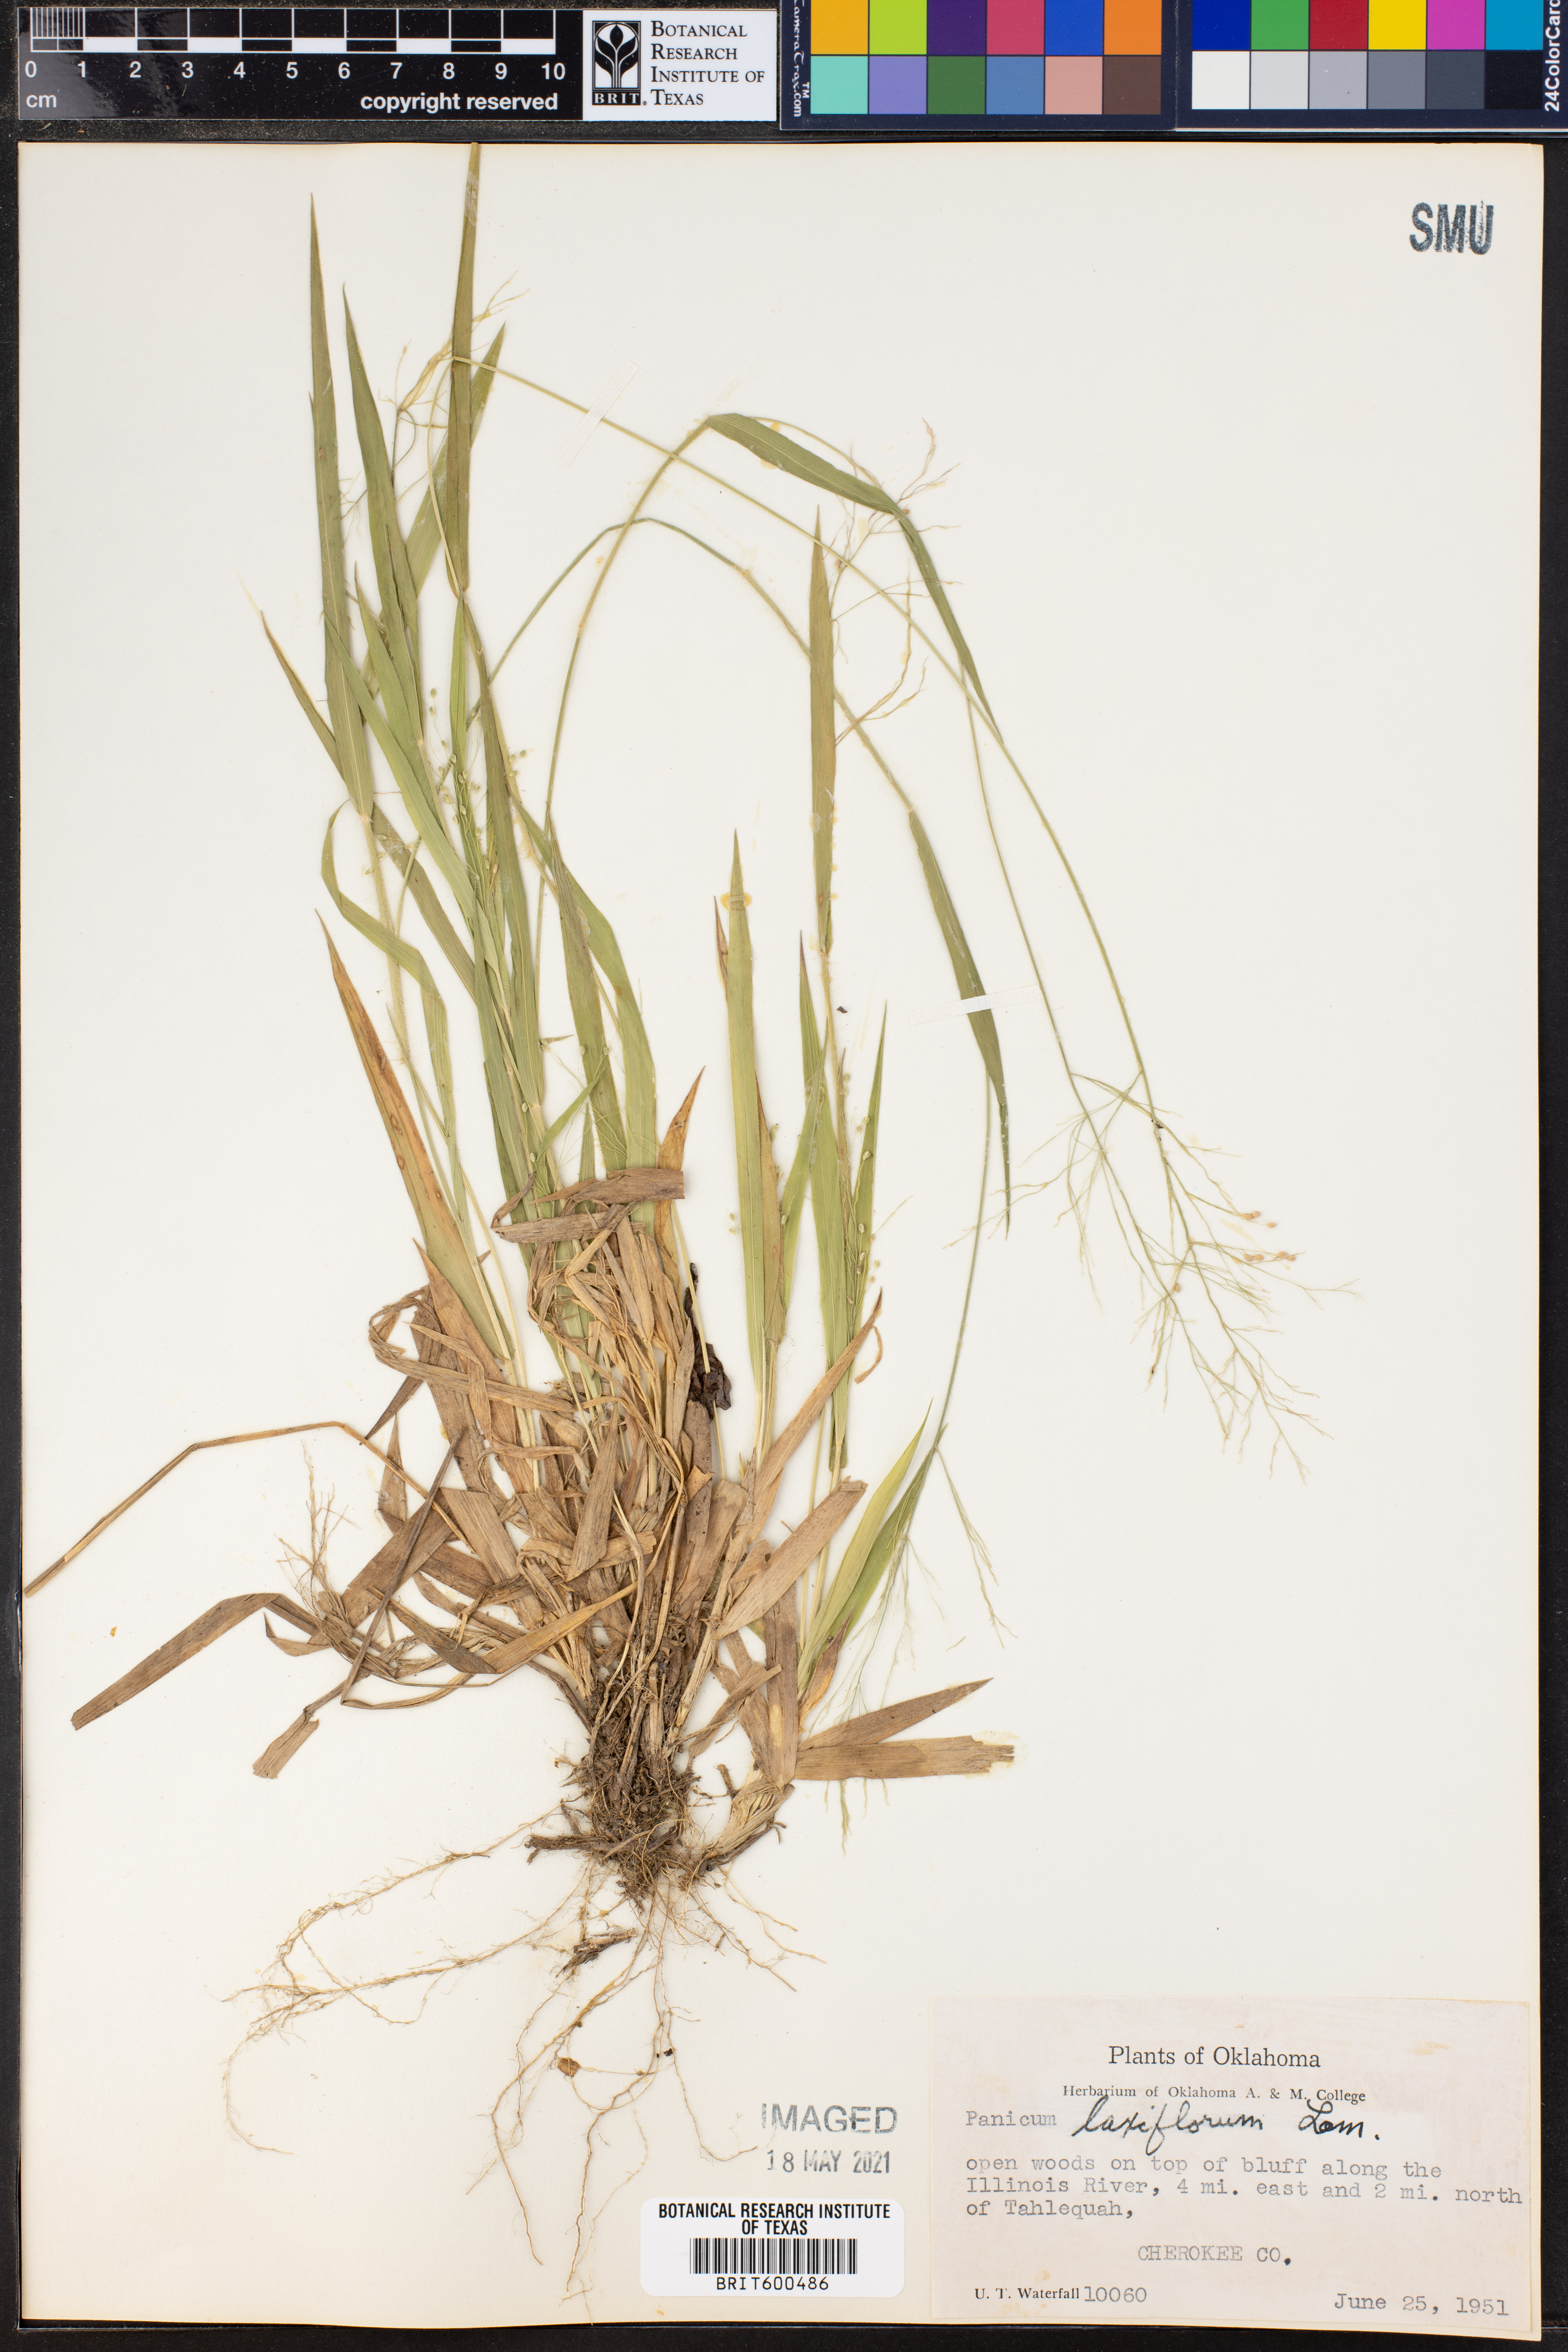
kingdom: Plantae
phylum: Tracheophyta
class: Liliopsida
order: Poales
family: Poaceae
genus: Dichanthelium
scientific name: Dichanthelium laxiflorum
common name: Soft-tuft panic grass
